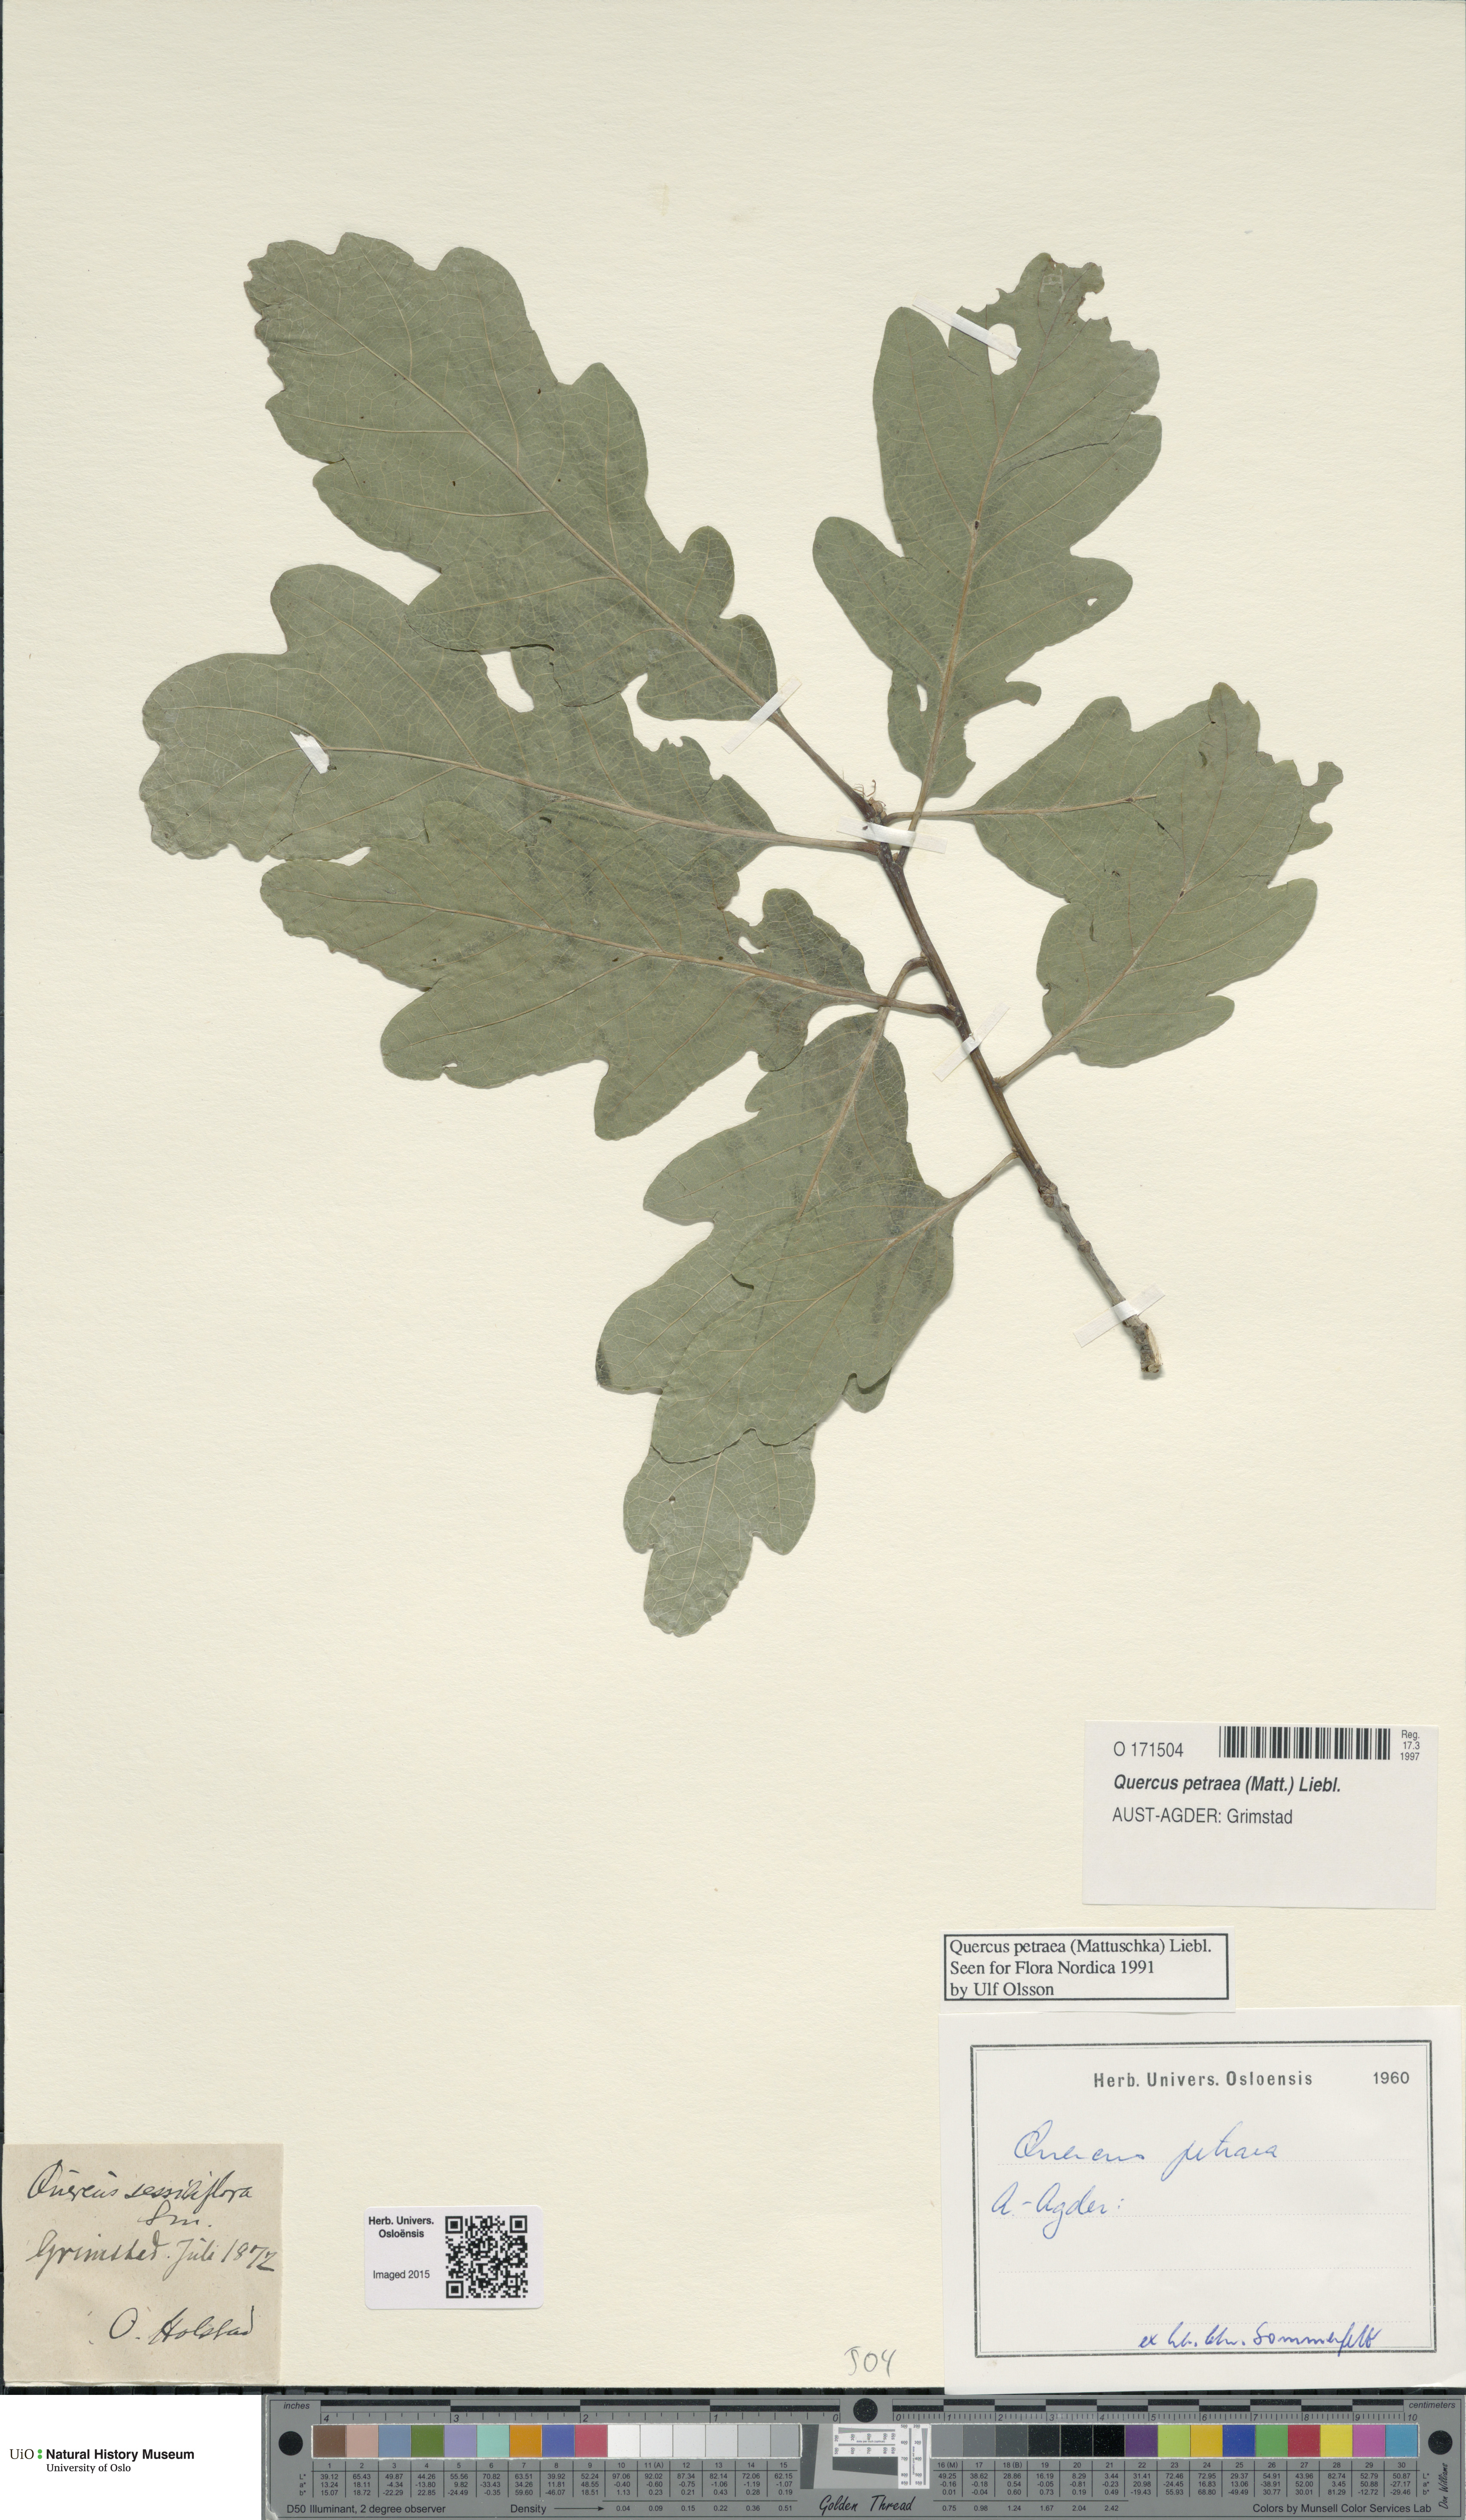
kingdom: Plantae
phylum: Tracheophyta
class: Magnoliopsida
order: Fagales
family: Fagaceae
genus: Quercus
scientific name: Quercus petraea
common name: Sessile oak
